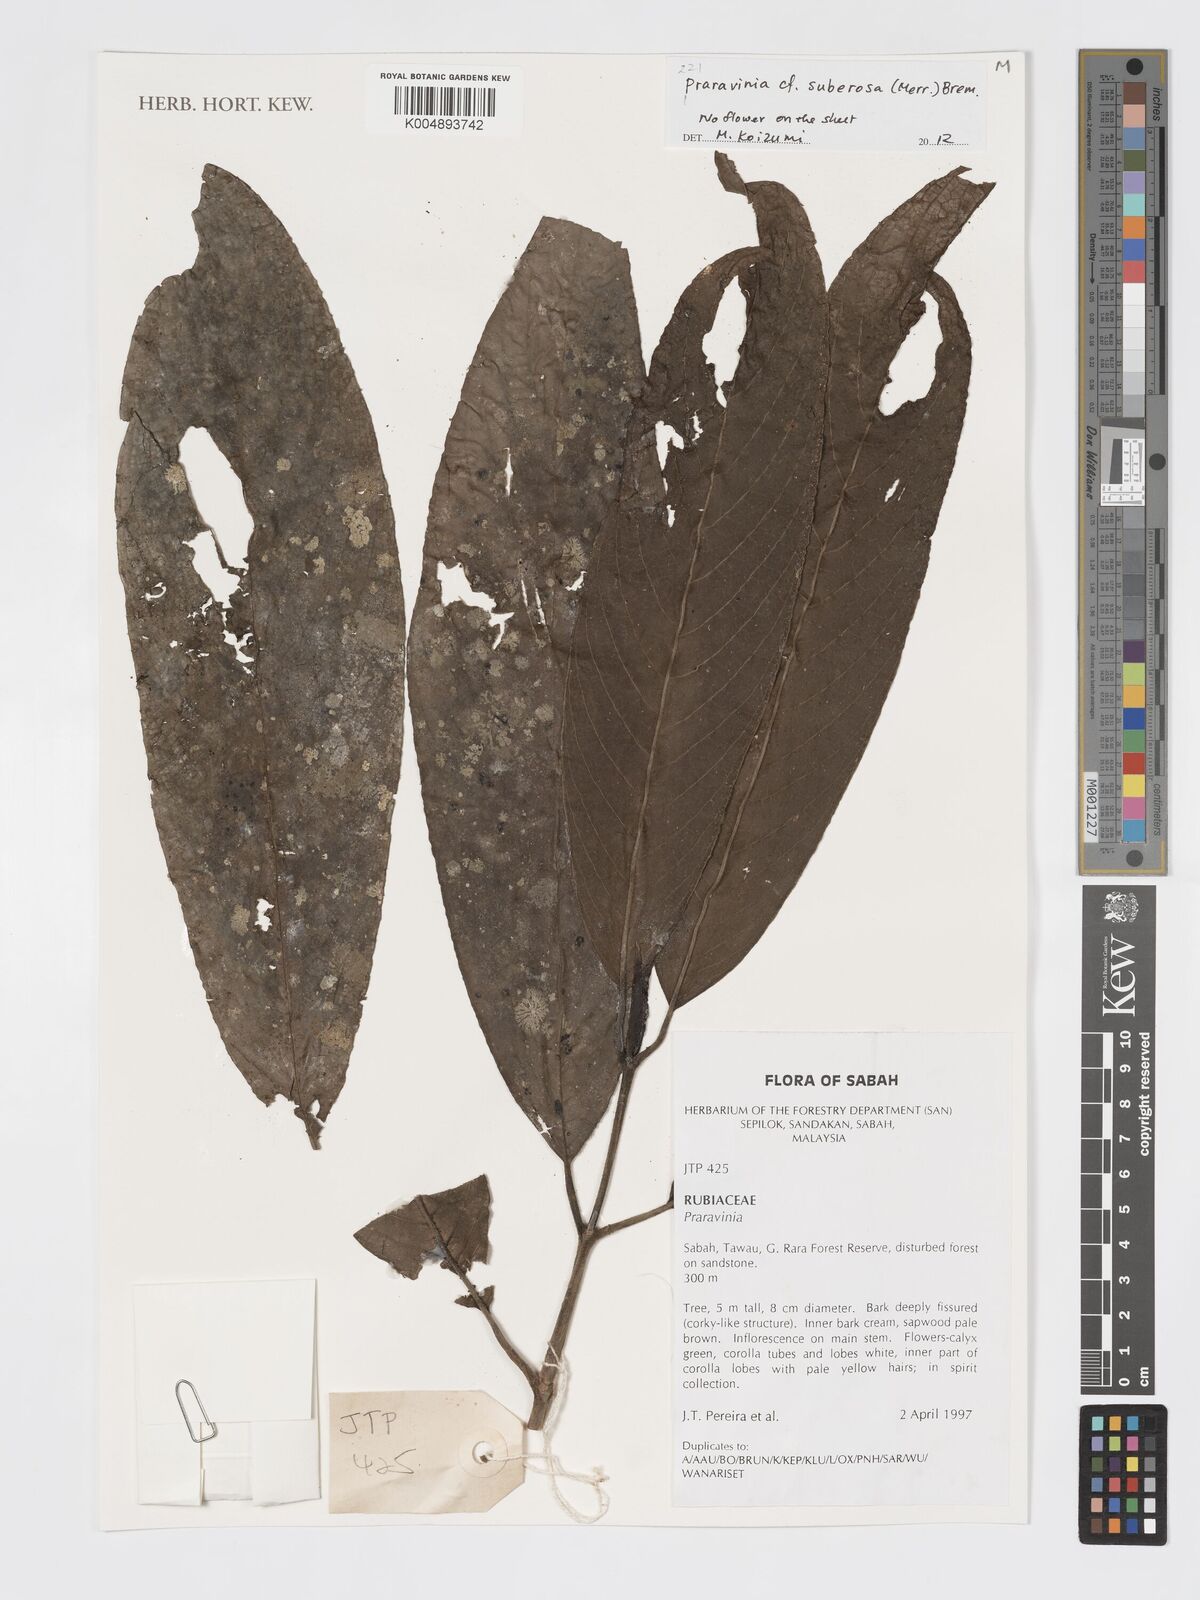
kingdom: Plantae
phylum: Tracheophyta
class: Magnoliopsida
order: Gentianales
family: Rubiaceae
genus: Praravinia
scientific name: Praravinia suberosa
